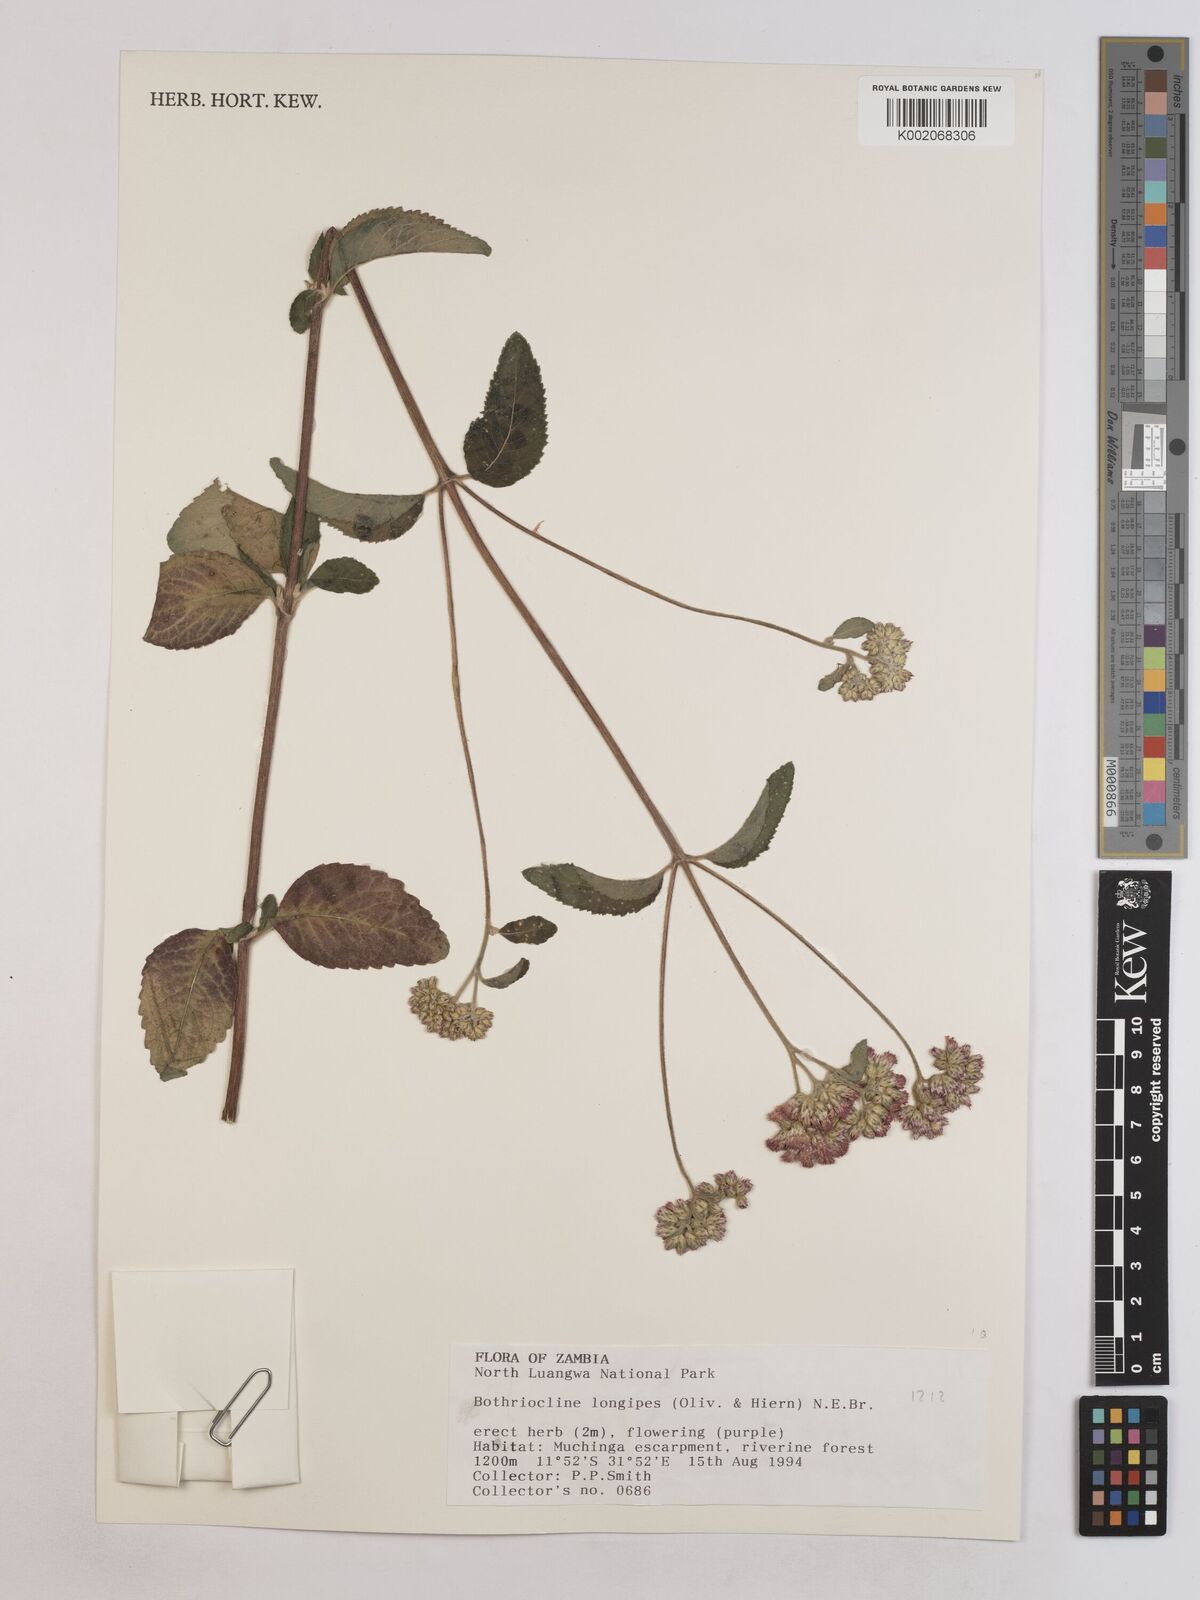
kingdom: Plantae
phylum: Tracheophyta
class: Magnoliopsida
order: Asterales
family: Asteraceae
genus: Bothriocline
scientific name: Bothriocline longipes
